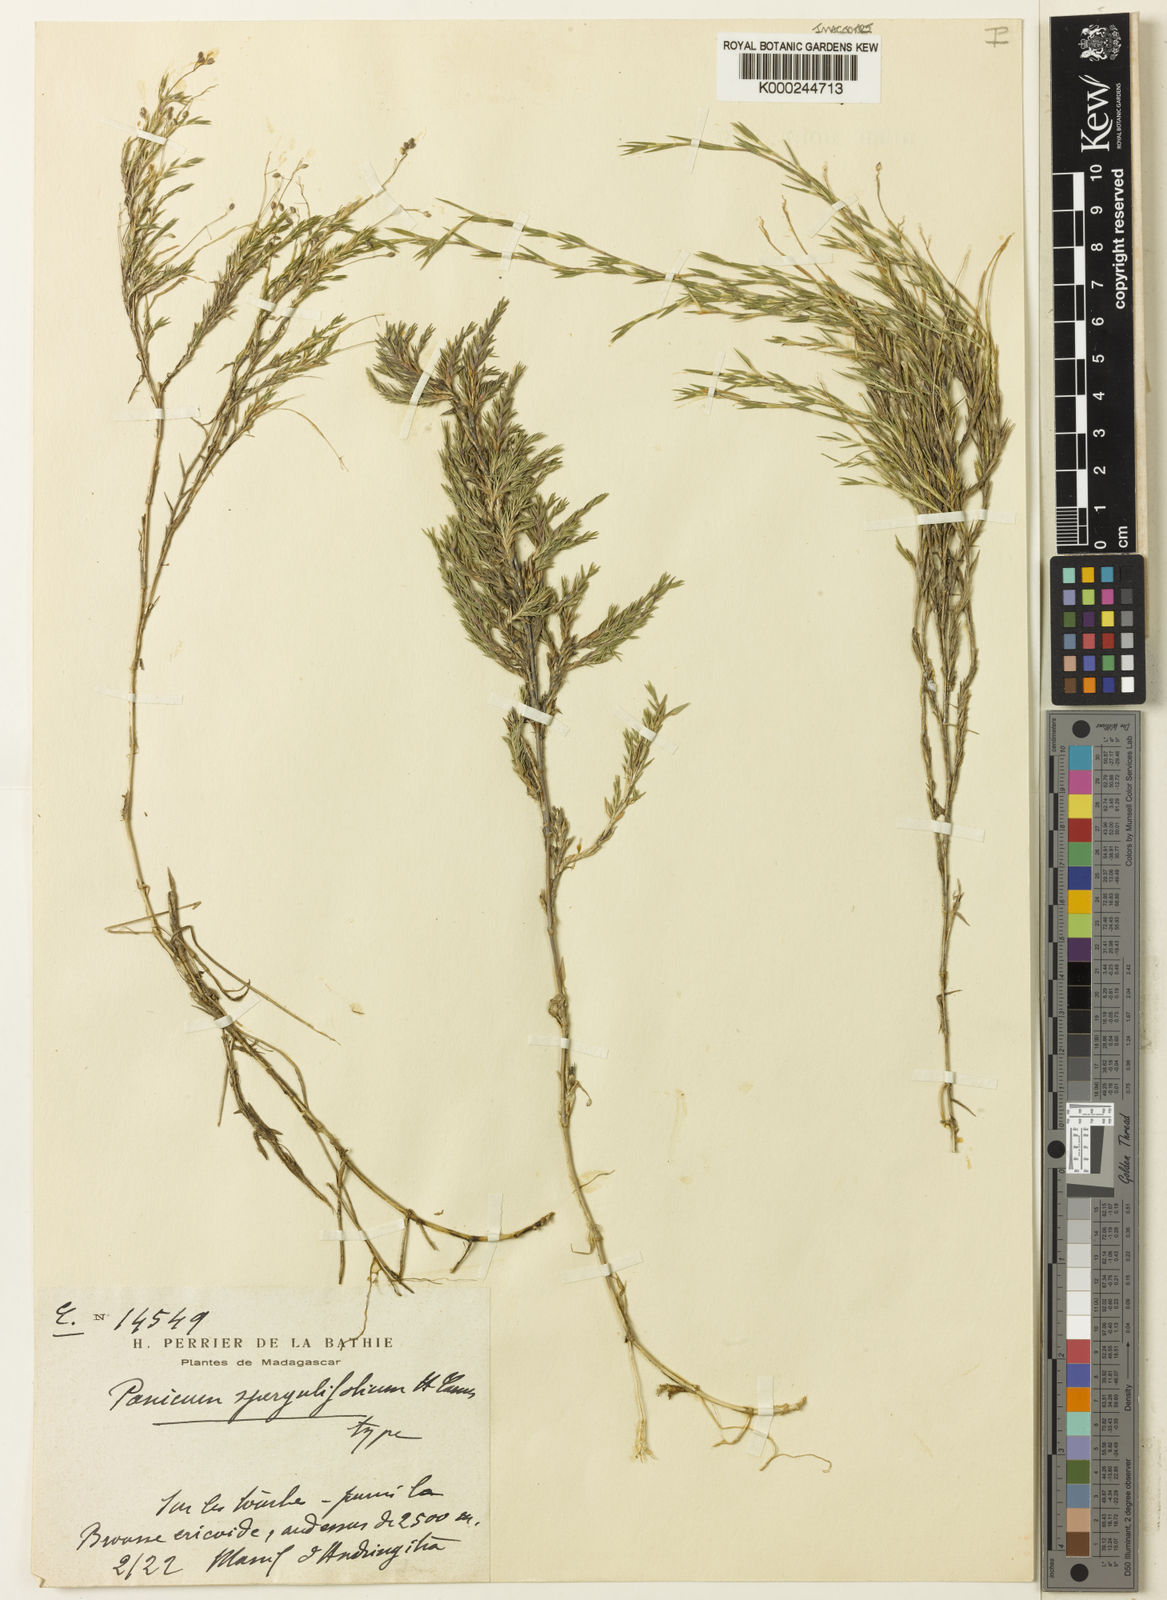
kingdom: Plantae
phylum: Tracheophyta
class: Liliopsida
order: Poales
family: Poaceae
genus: Panicum
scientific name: Panicum
